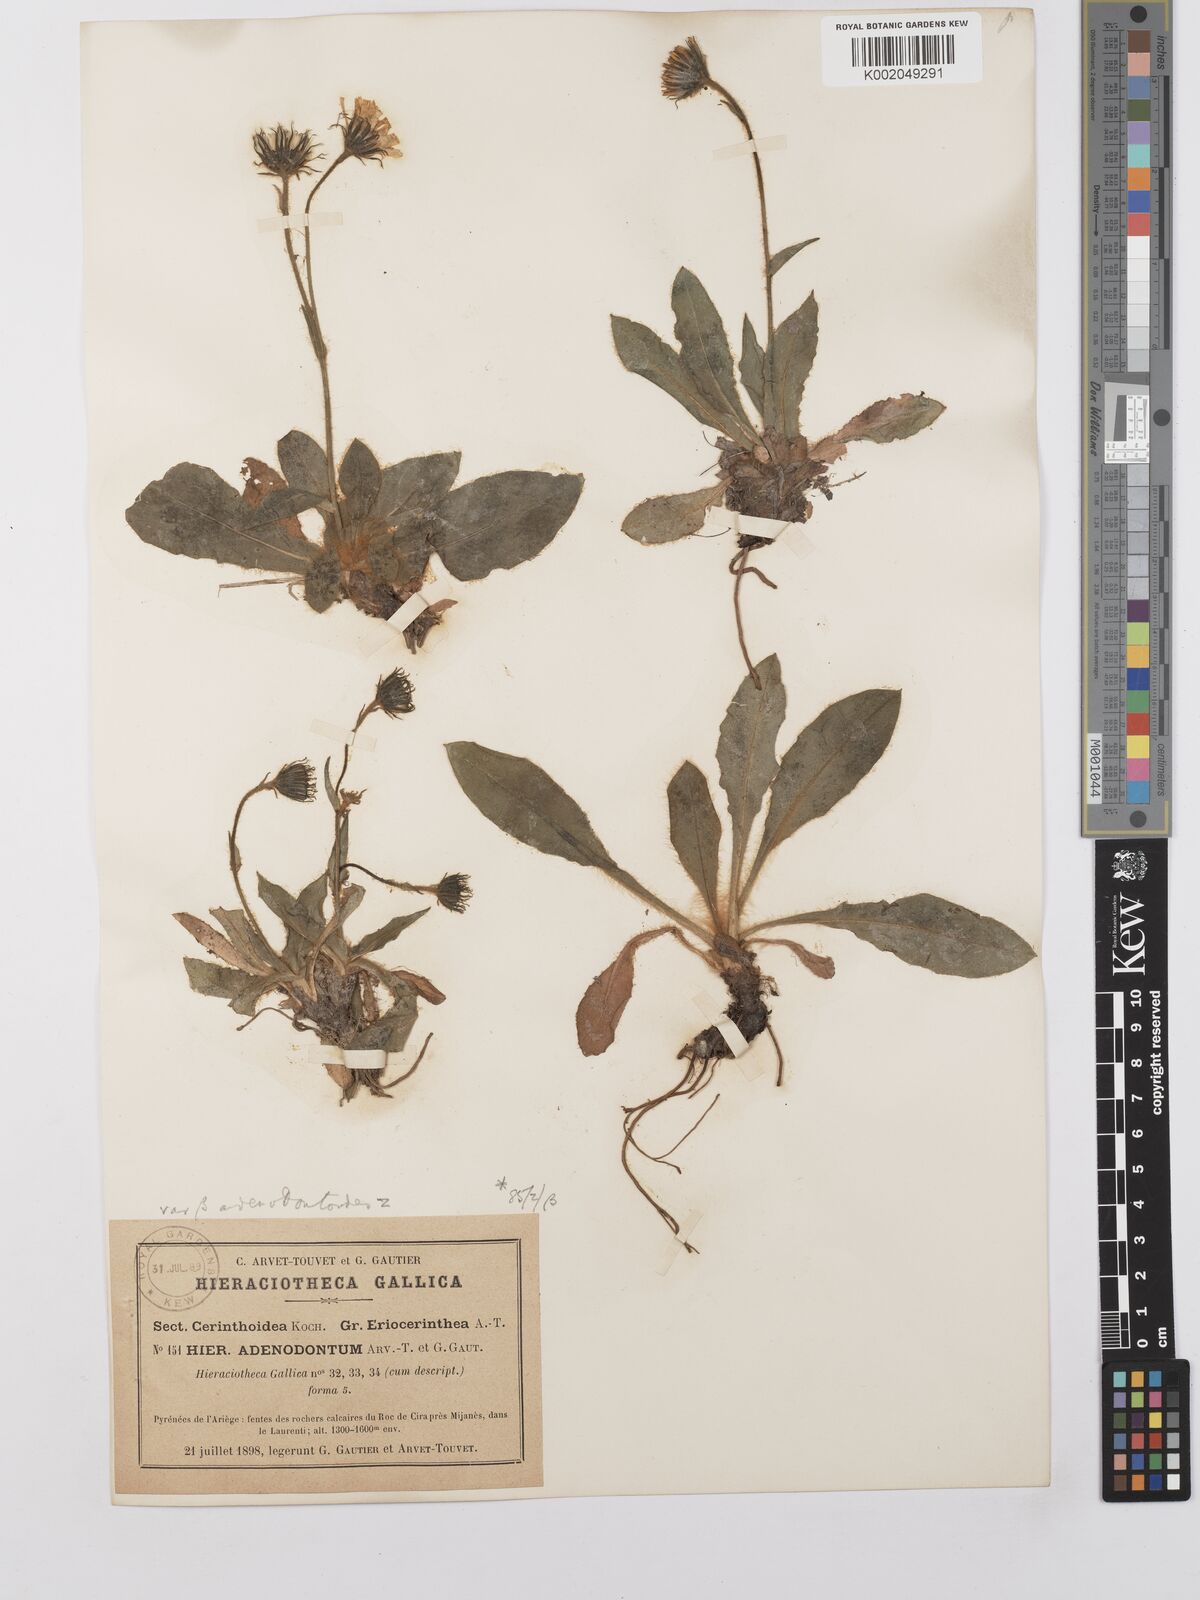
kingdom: Plantae
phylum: Tracheophyta
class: Magnoliopsida
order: Asterales
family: Asteraceae
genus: Hieracium
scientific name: Hieracium
